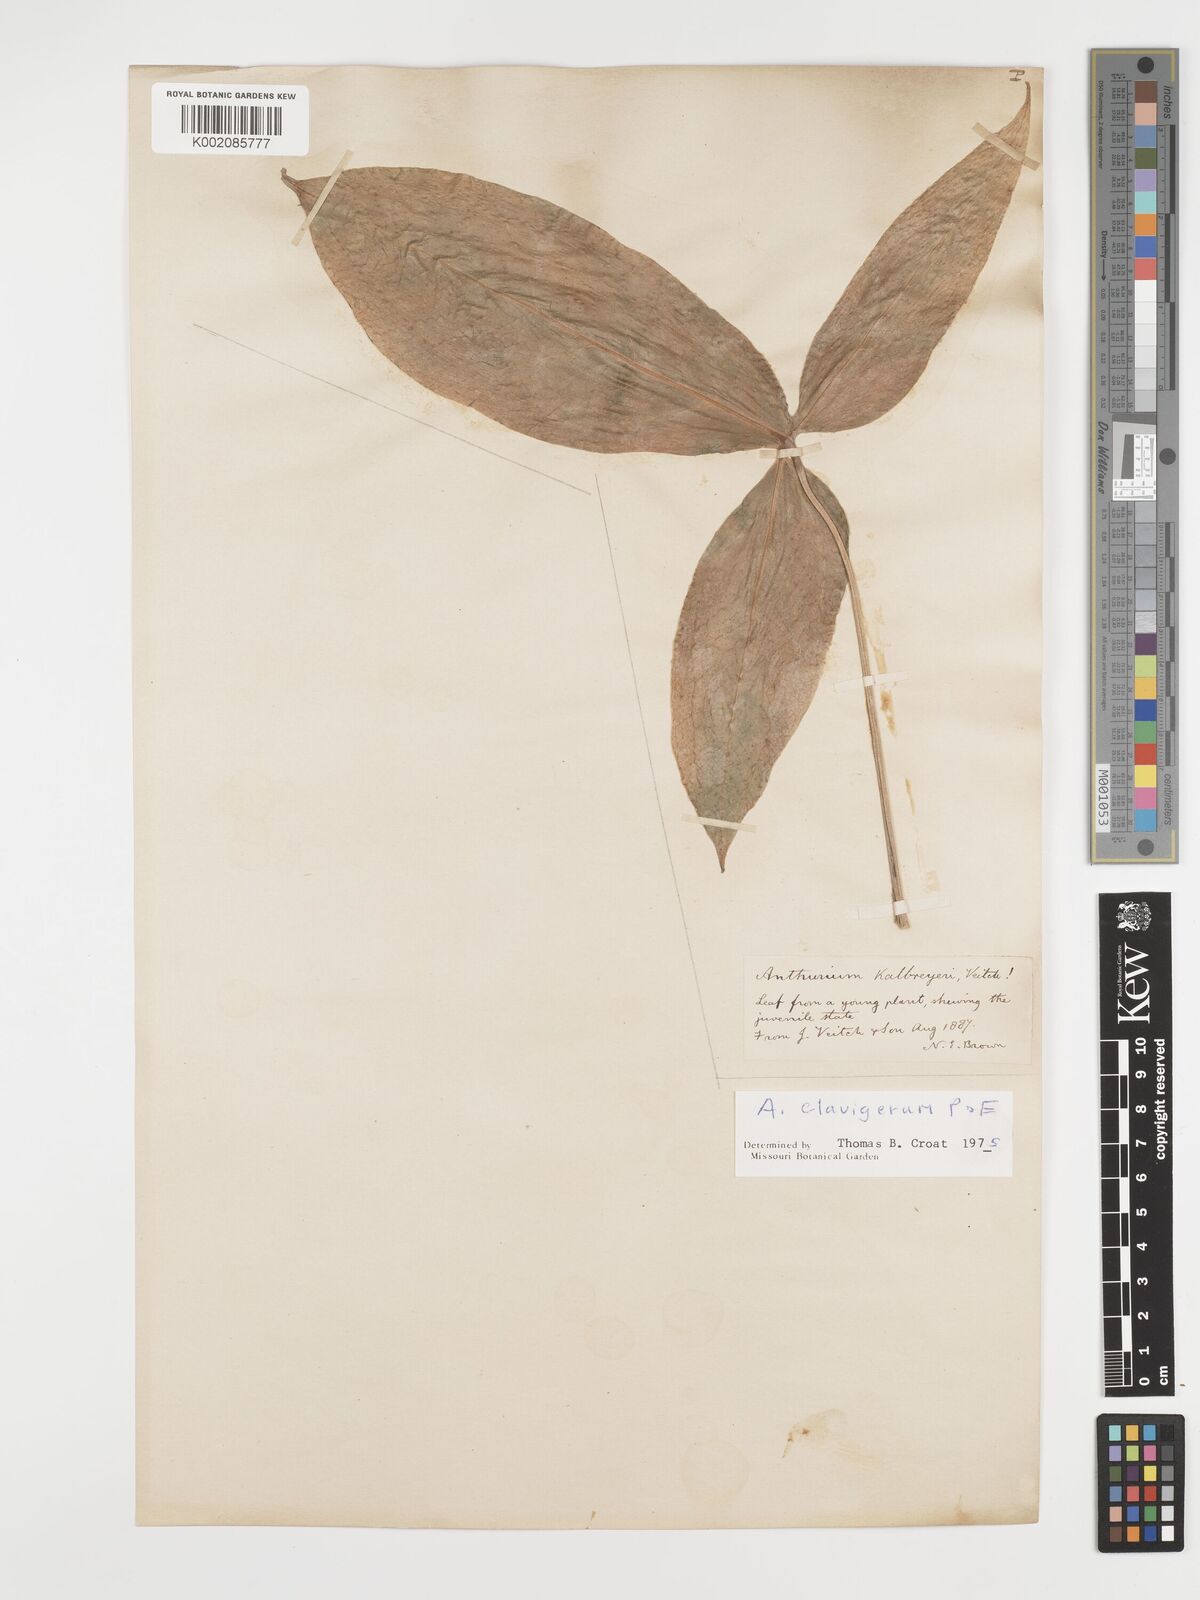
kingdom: Plantae
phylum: Tracheophyta
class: Liliopsida
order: Alismatales
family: Araceae
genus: Anthurium
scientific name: Anthurium clavigerum
